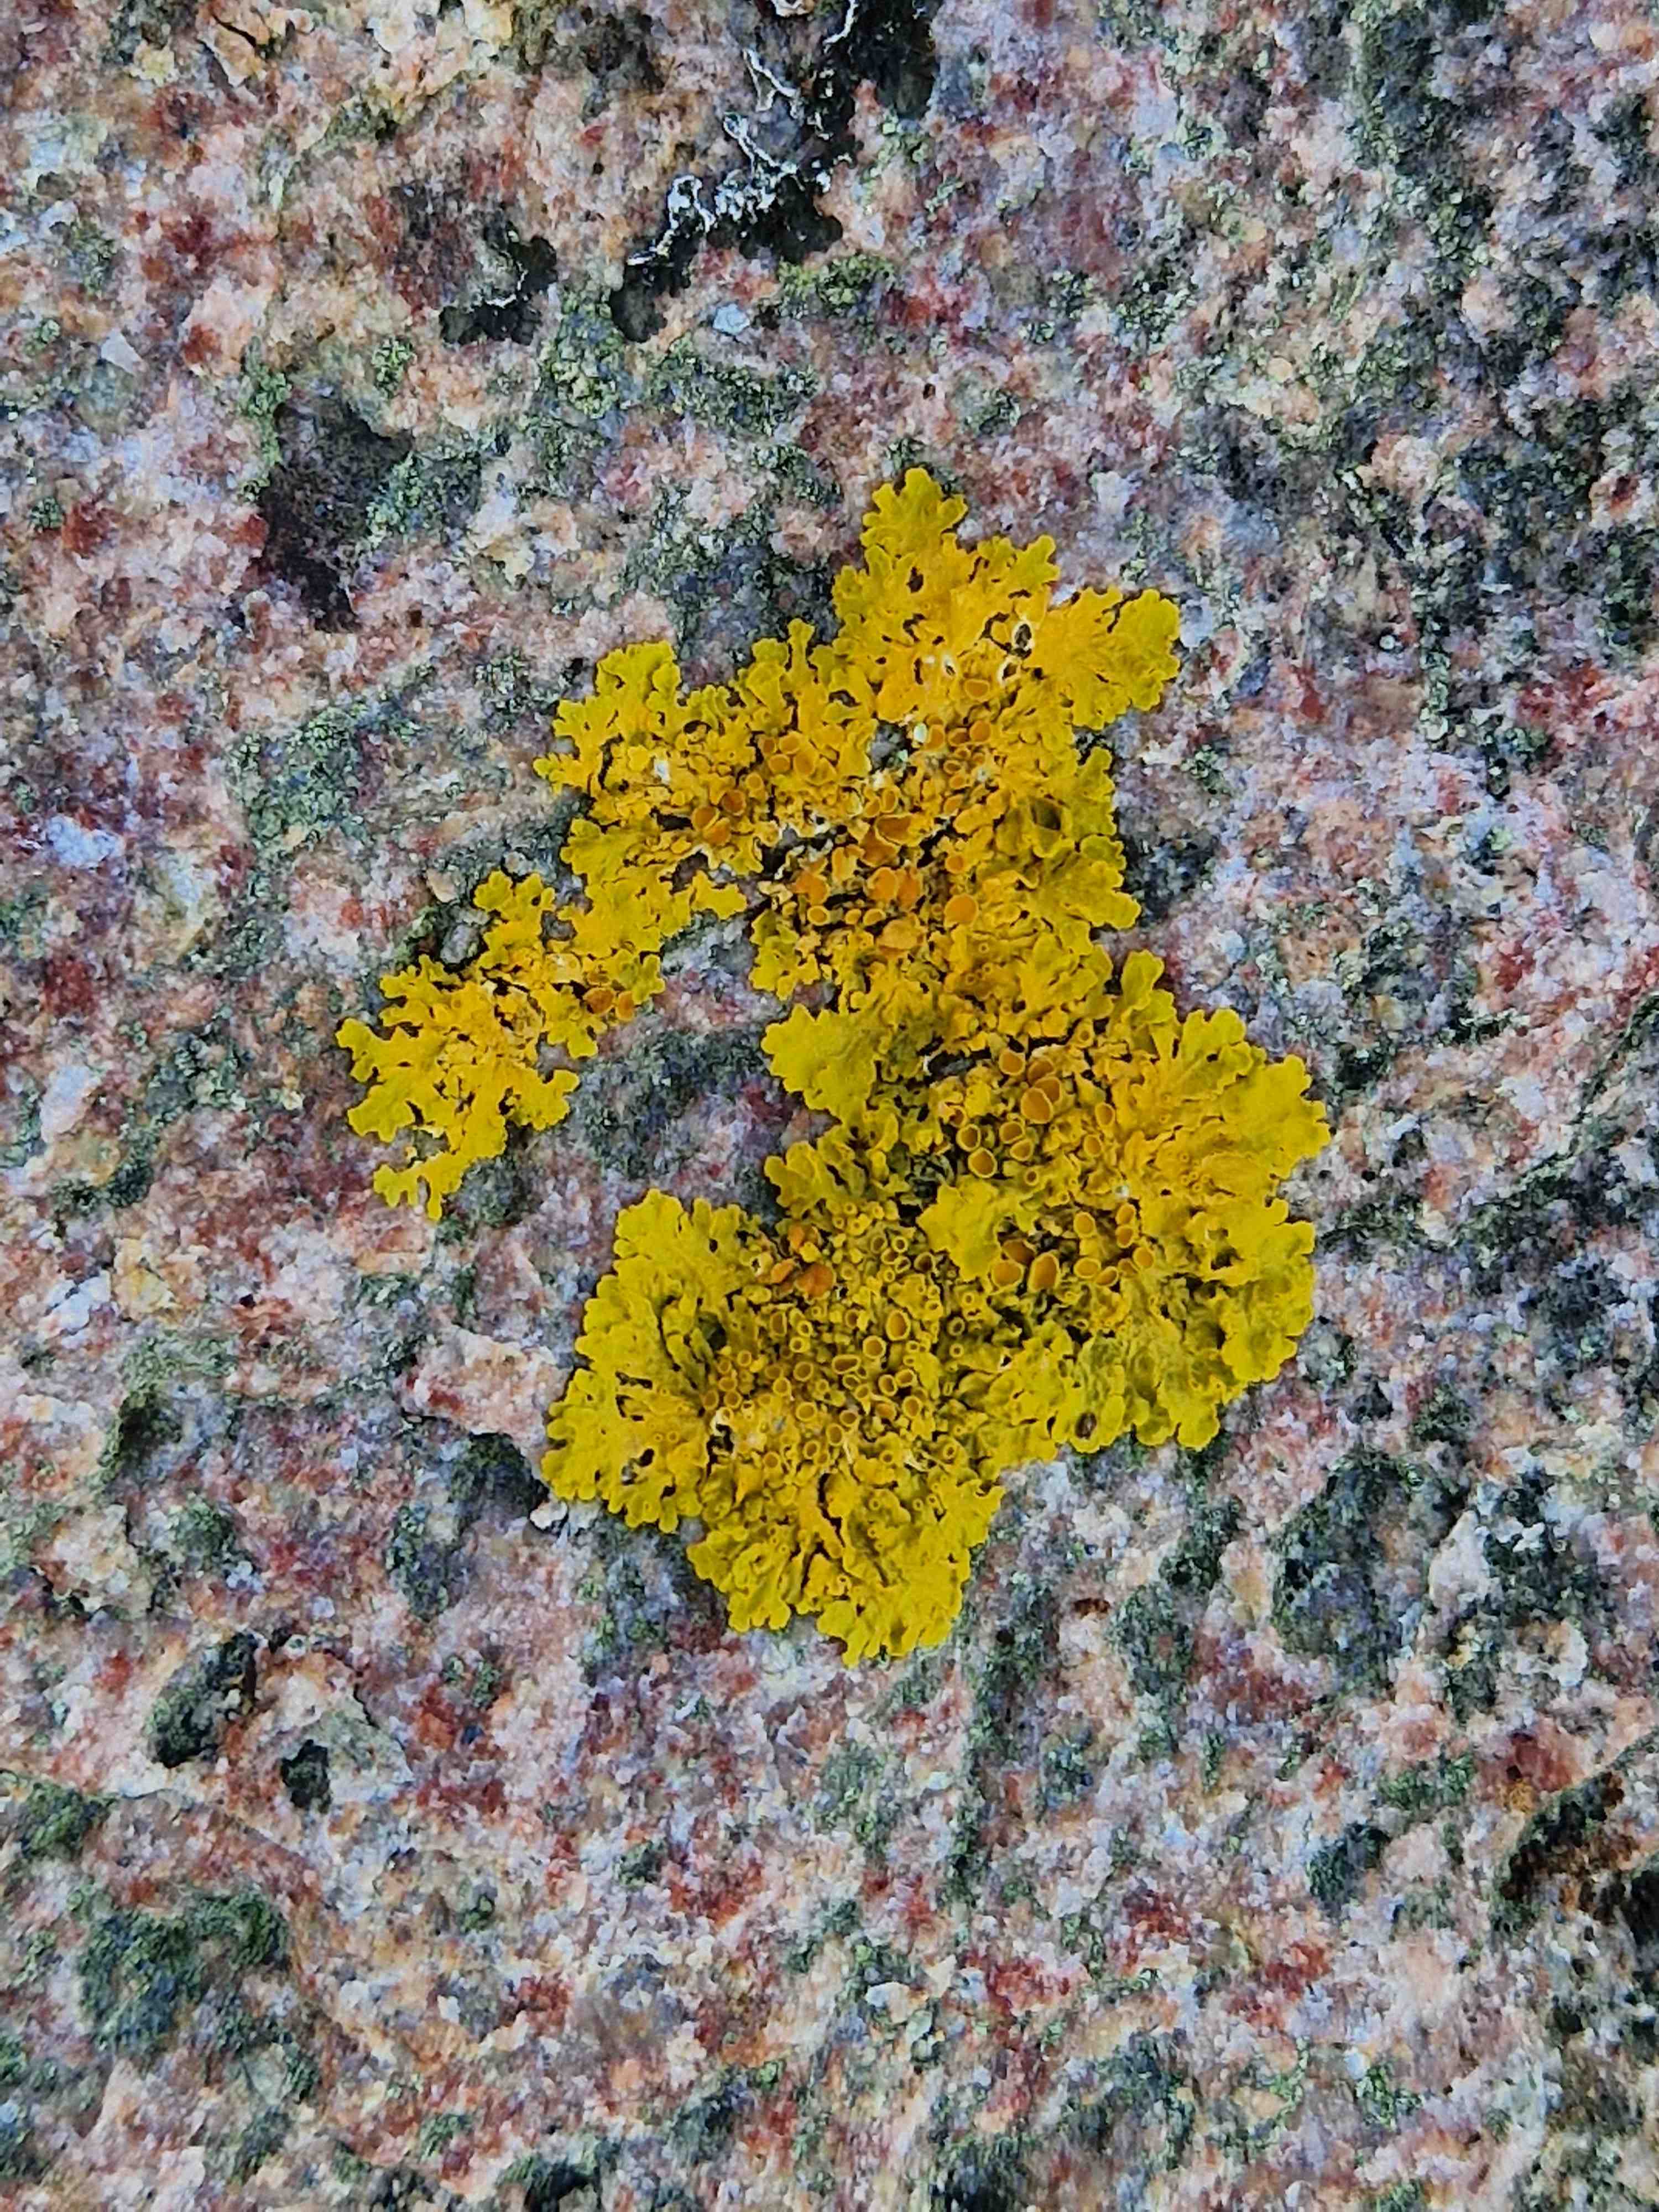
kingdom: Fungi
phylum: Ascomycota
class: Lecanoromycetes
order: Teloschistales
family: Teloschistaceae
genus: Xanthoria
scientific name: Xanthoria parietina
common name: almindelig væggelav
